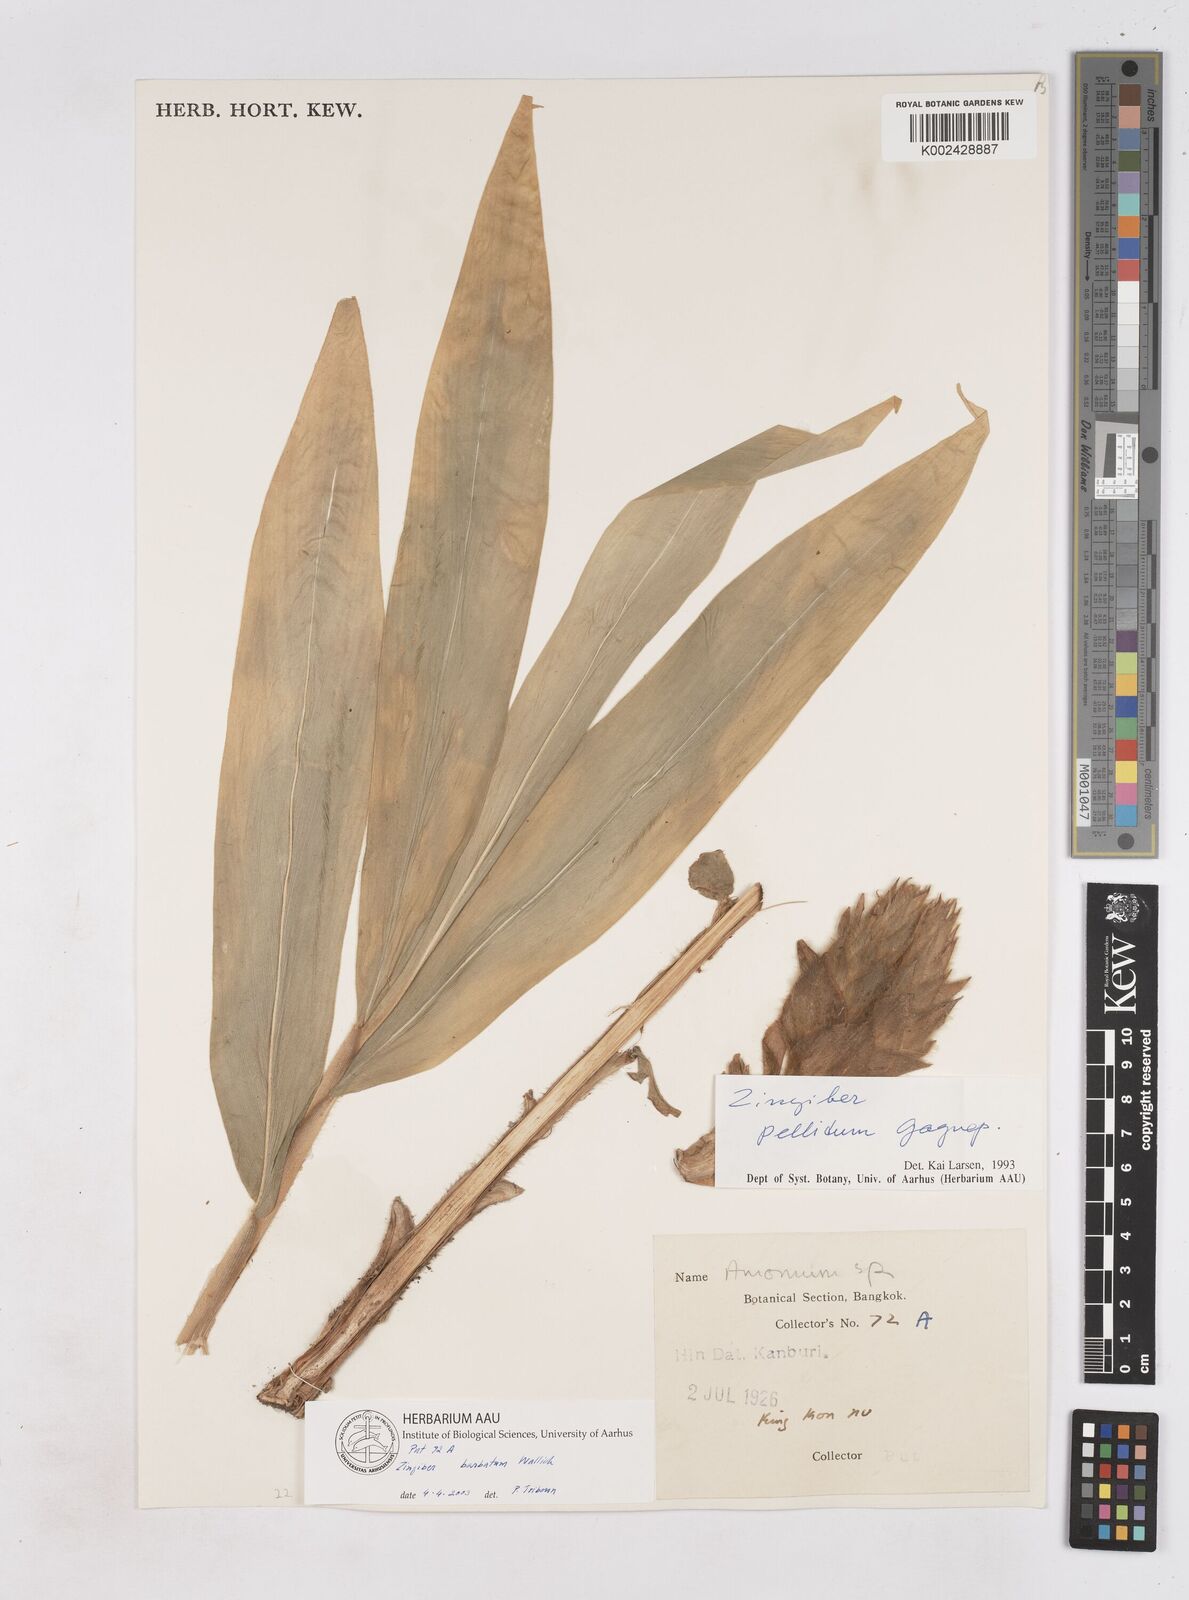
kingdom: Plantae
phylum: Tracheophyta
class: Liliopsida
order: Zingiberales
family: Zingiberaceae
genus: Zingiber
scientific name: Zingiber barbatum
